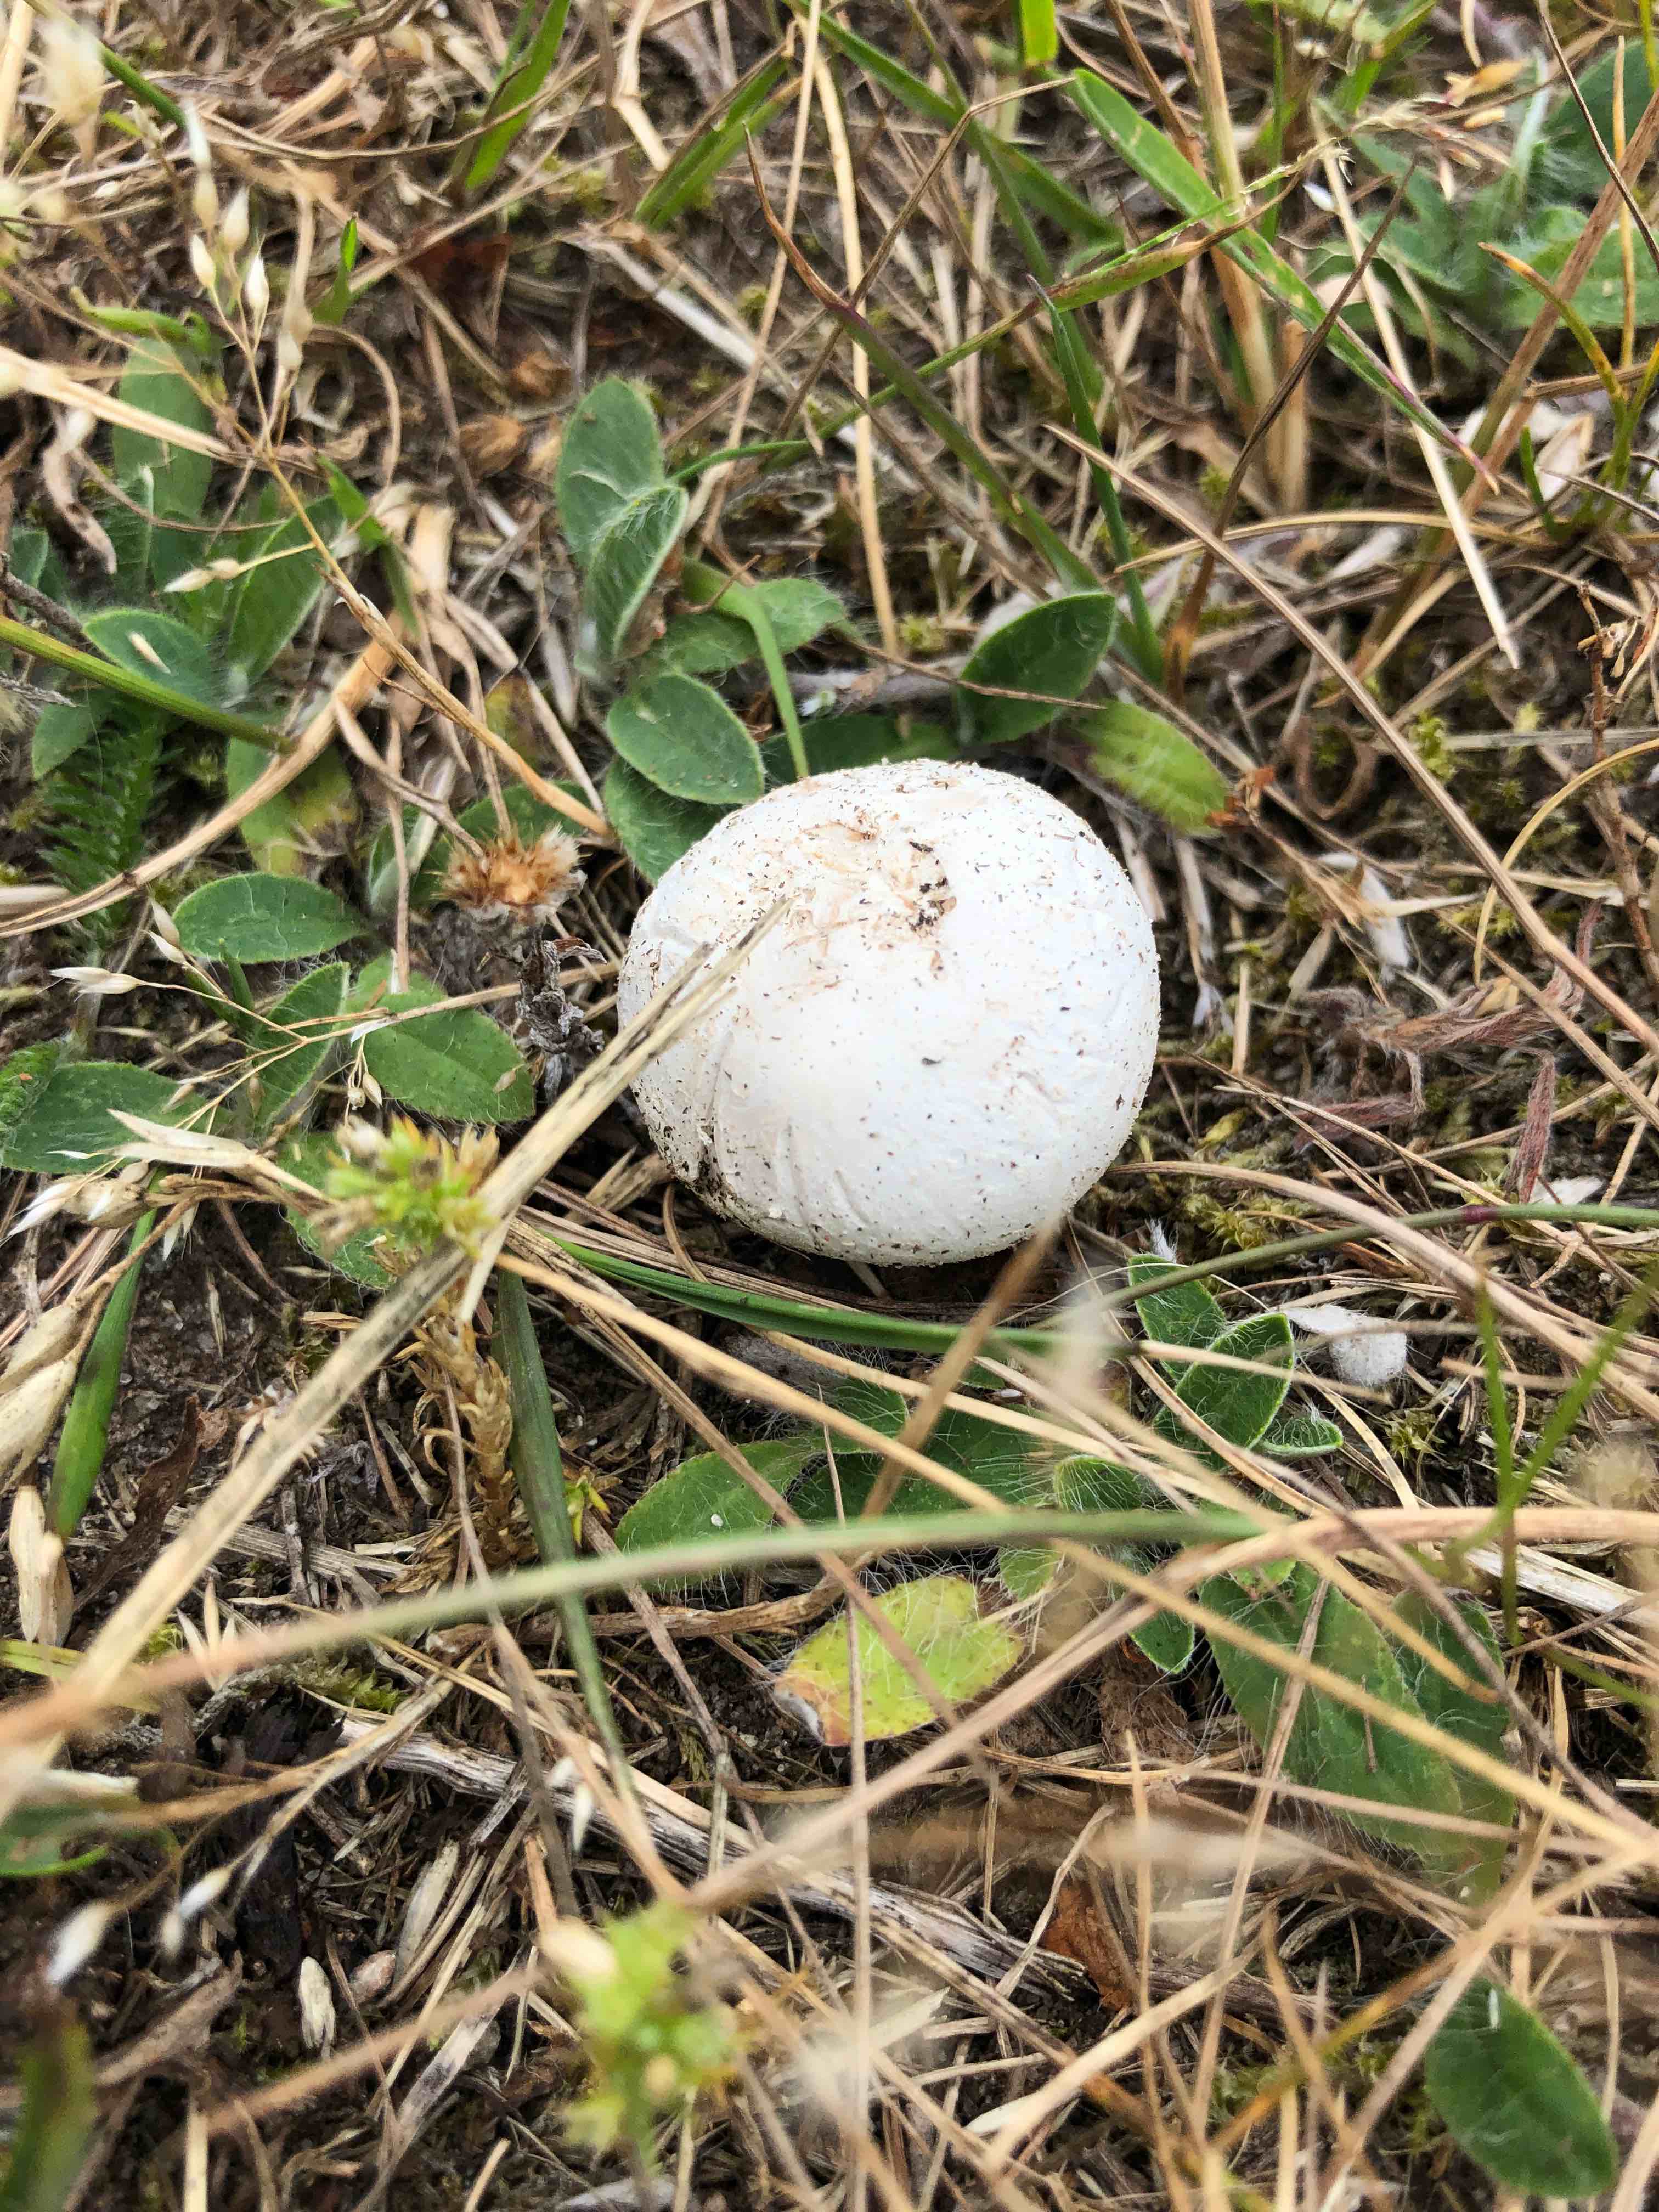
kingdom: Fungi
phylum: Basidiomycota
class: Agaricomycetes
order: Agaricales
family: Lycoperdaceae
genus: Bovista
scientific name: Bovista
